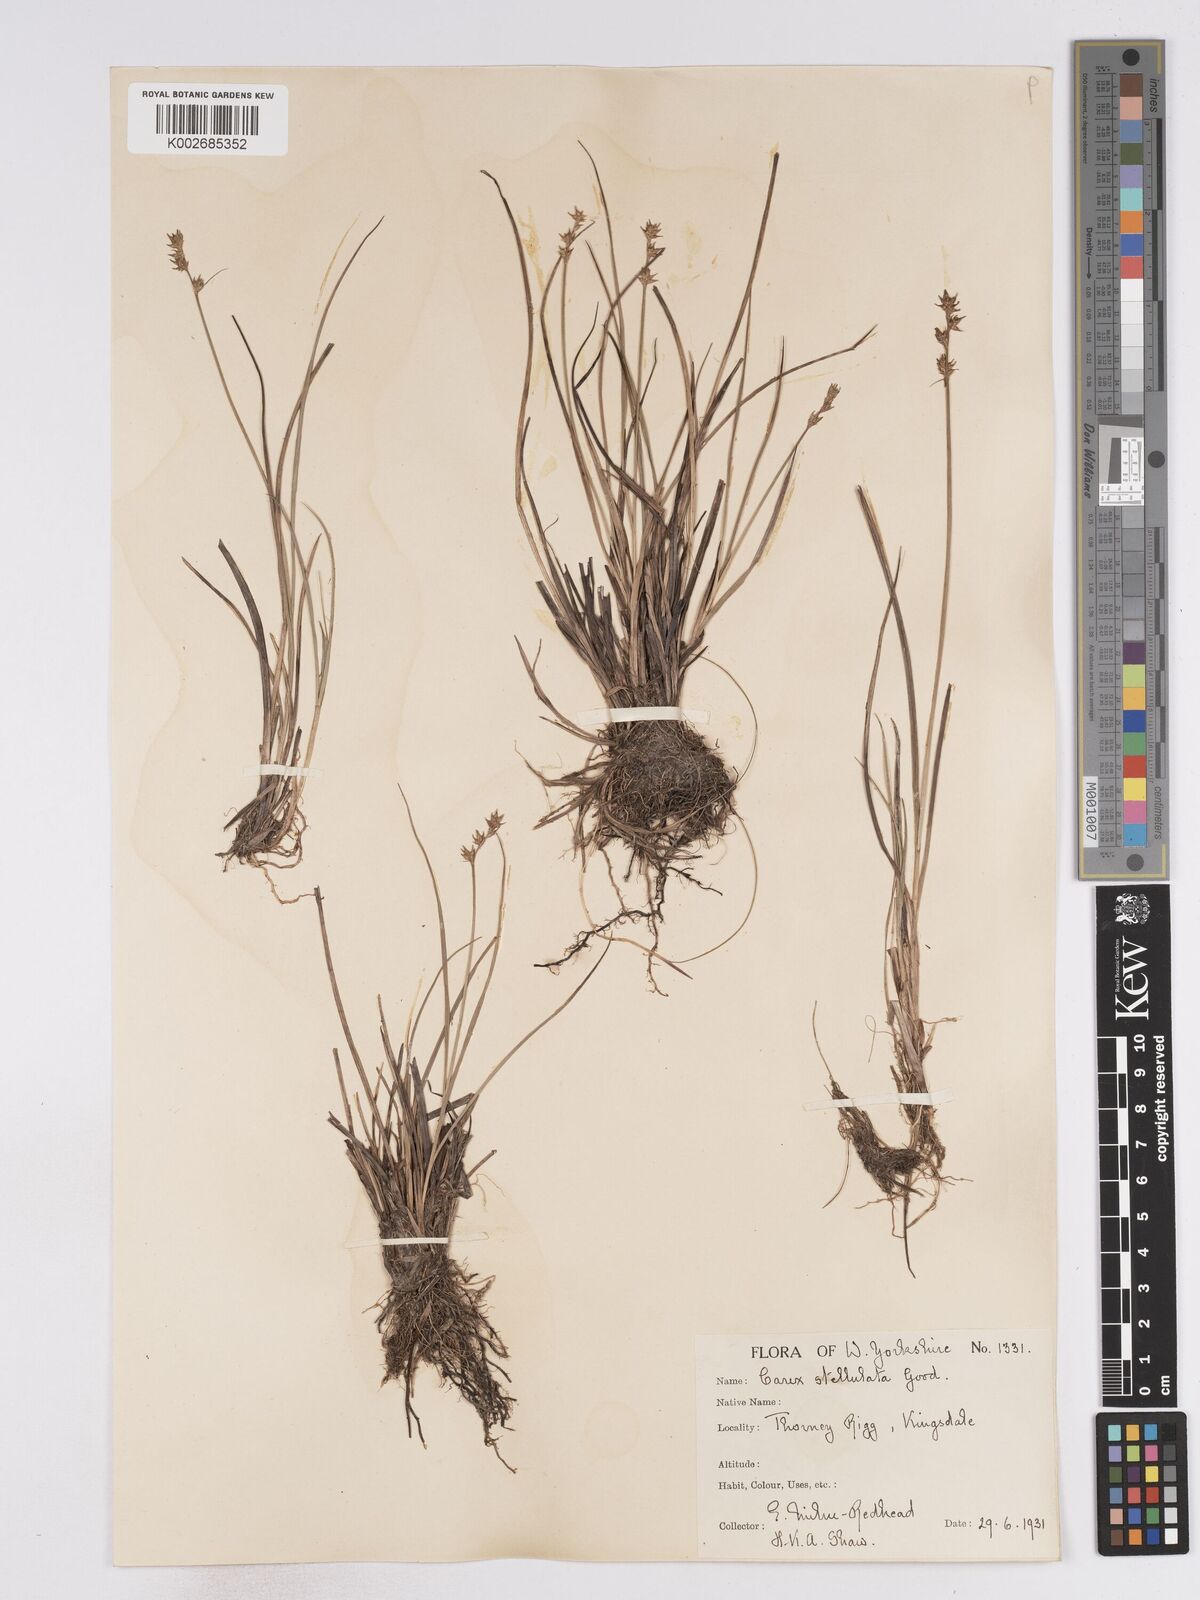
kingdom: Plantae
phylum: Tracheophyta
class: Liliopsida
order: Poales
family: Cyperaceae
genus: Carex
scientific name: Carex echinata
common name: Star sedge
